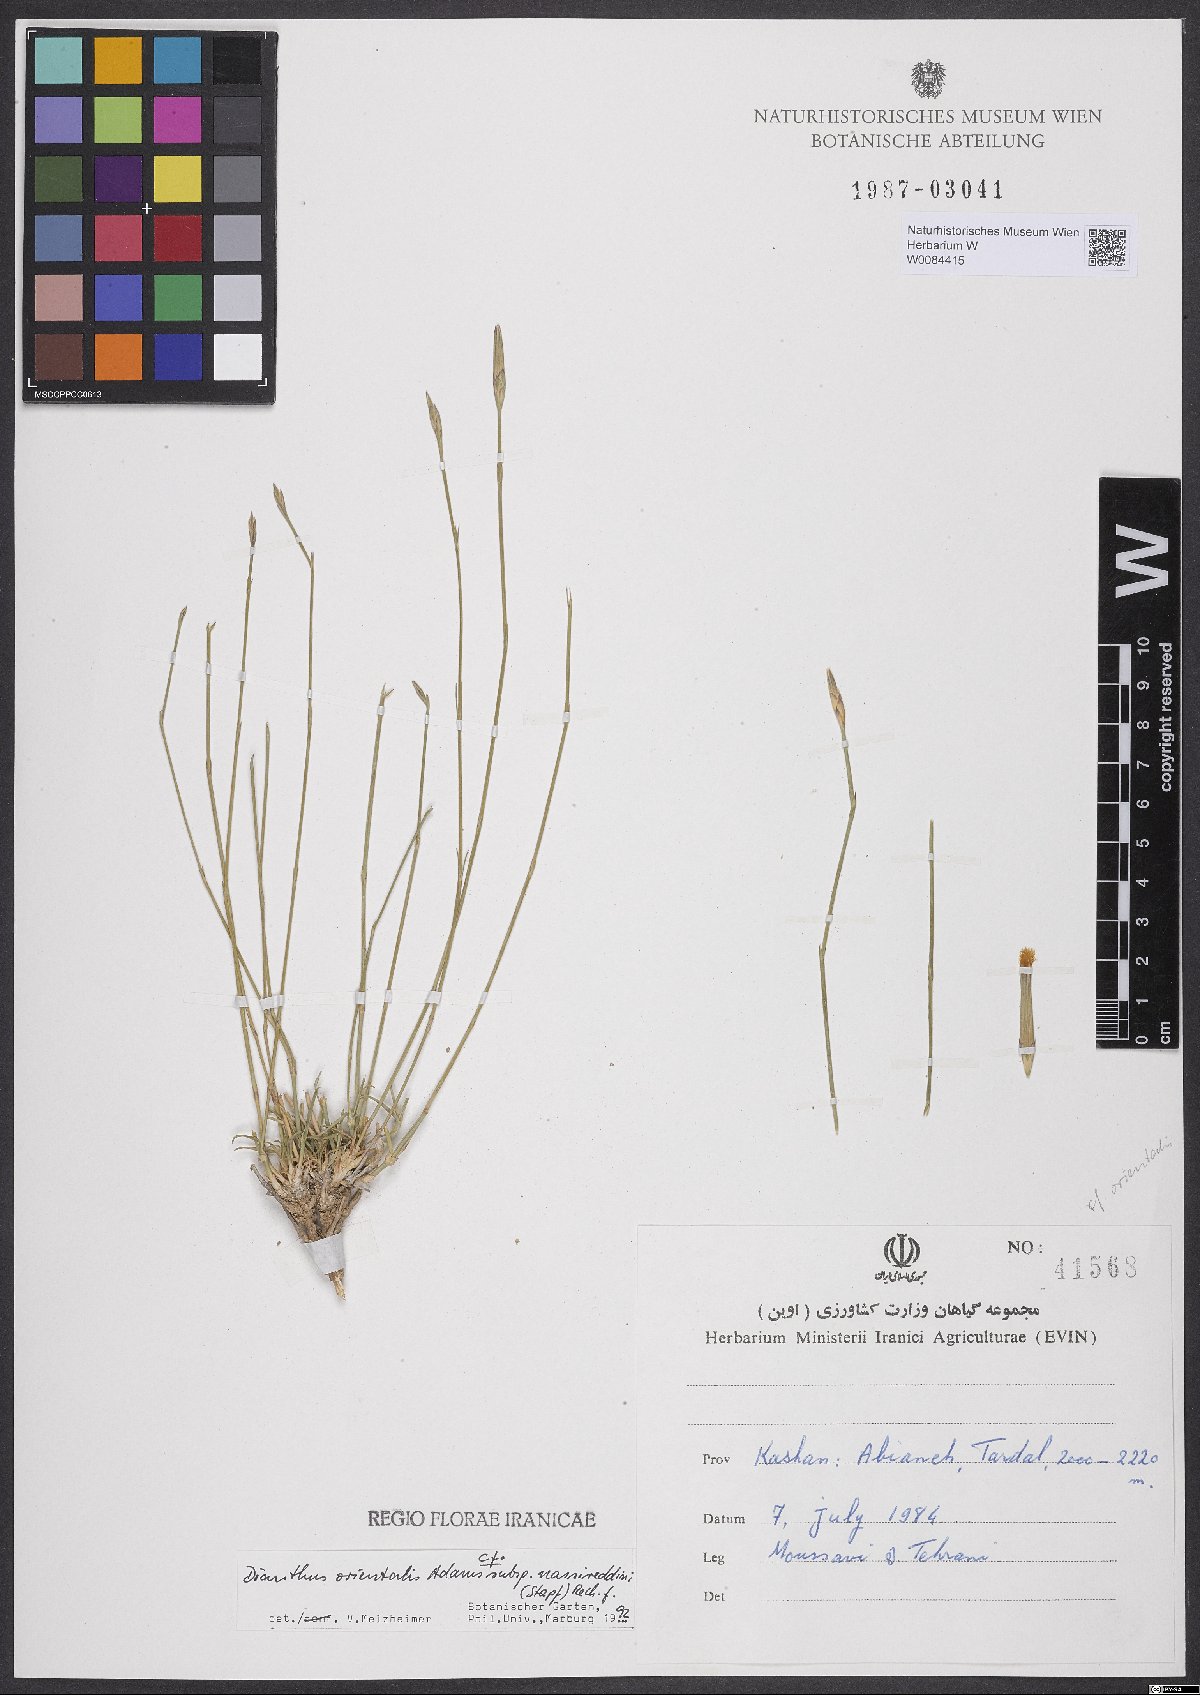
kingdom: Plantae
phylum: Tracheophyta
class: Magnoliopsida
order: Caryophyllales
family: Caryophyllaceae
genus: Dianthus
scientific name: Dianthus orientalis
